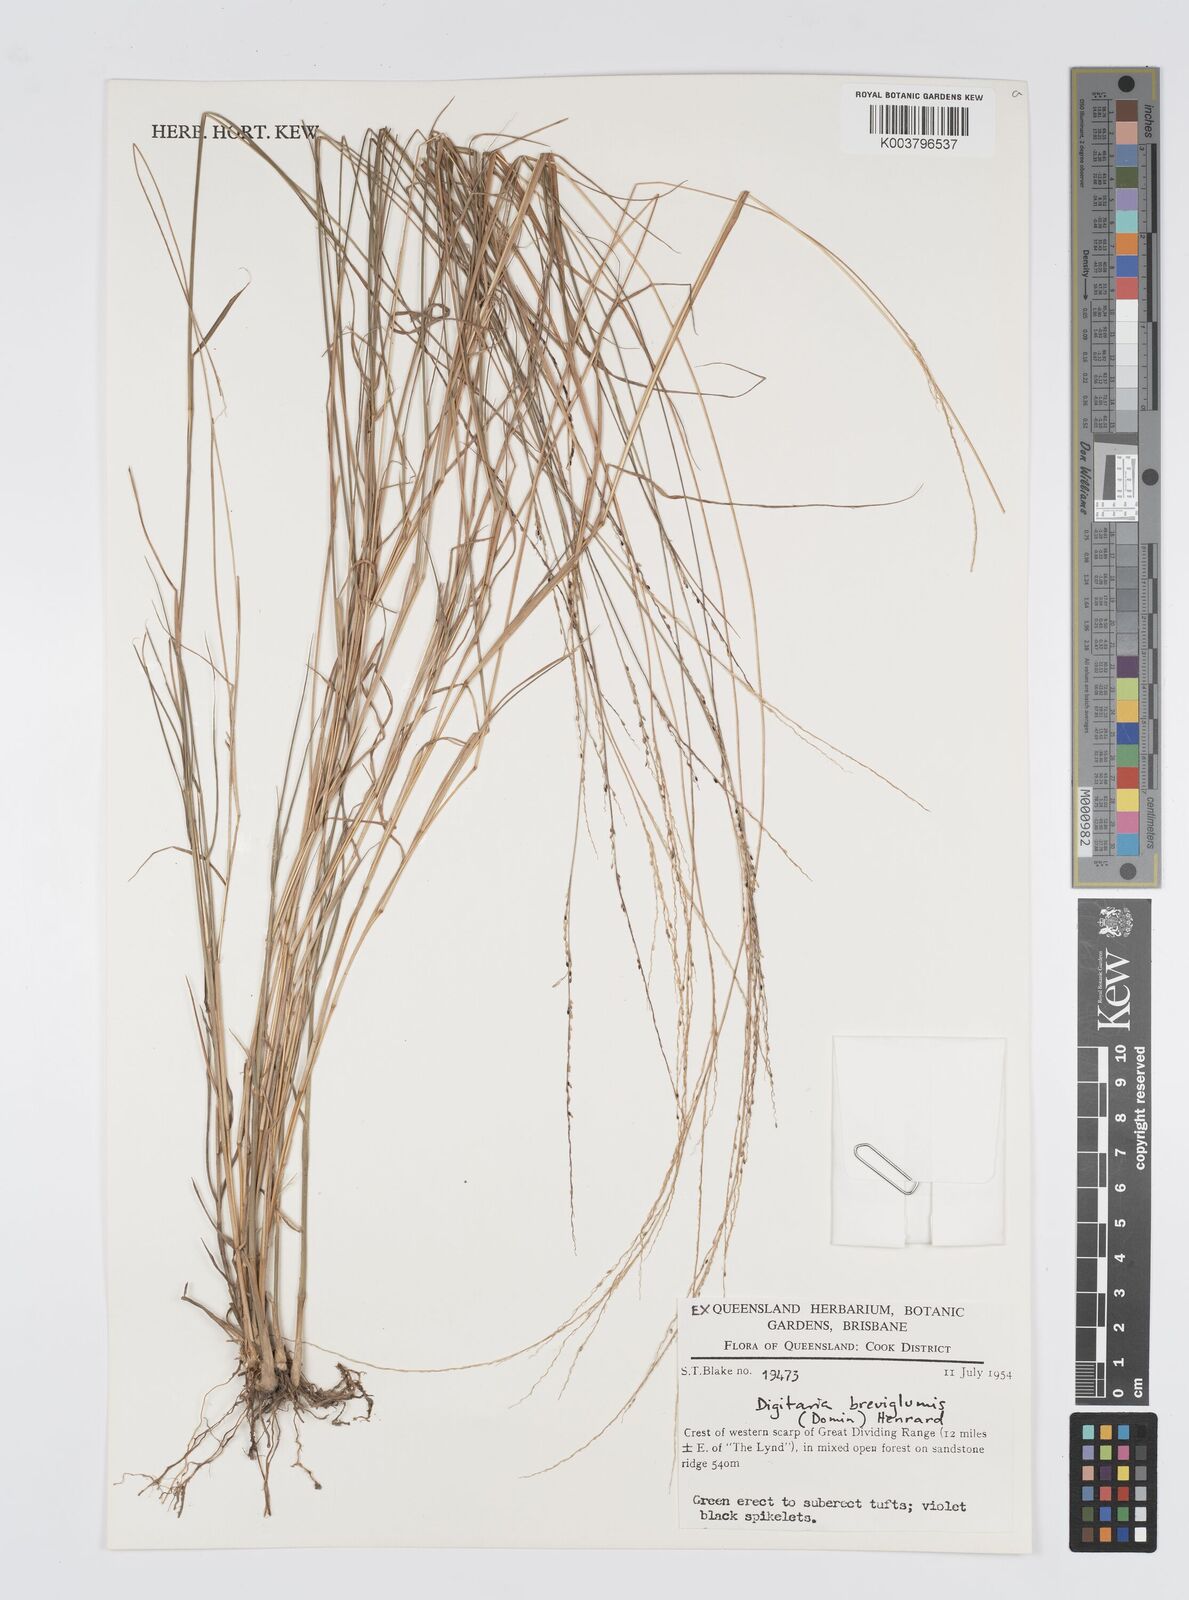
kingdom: Plantae
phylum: Tracheophyta
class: Liliopsida
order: Poales
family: Poaceae
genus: Digitaria
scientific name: Digitaria breviglumis
